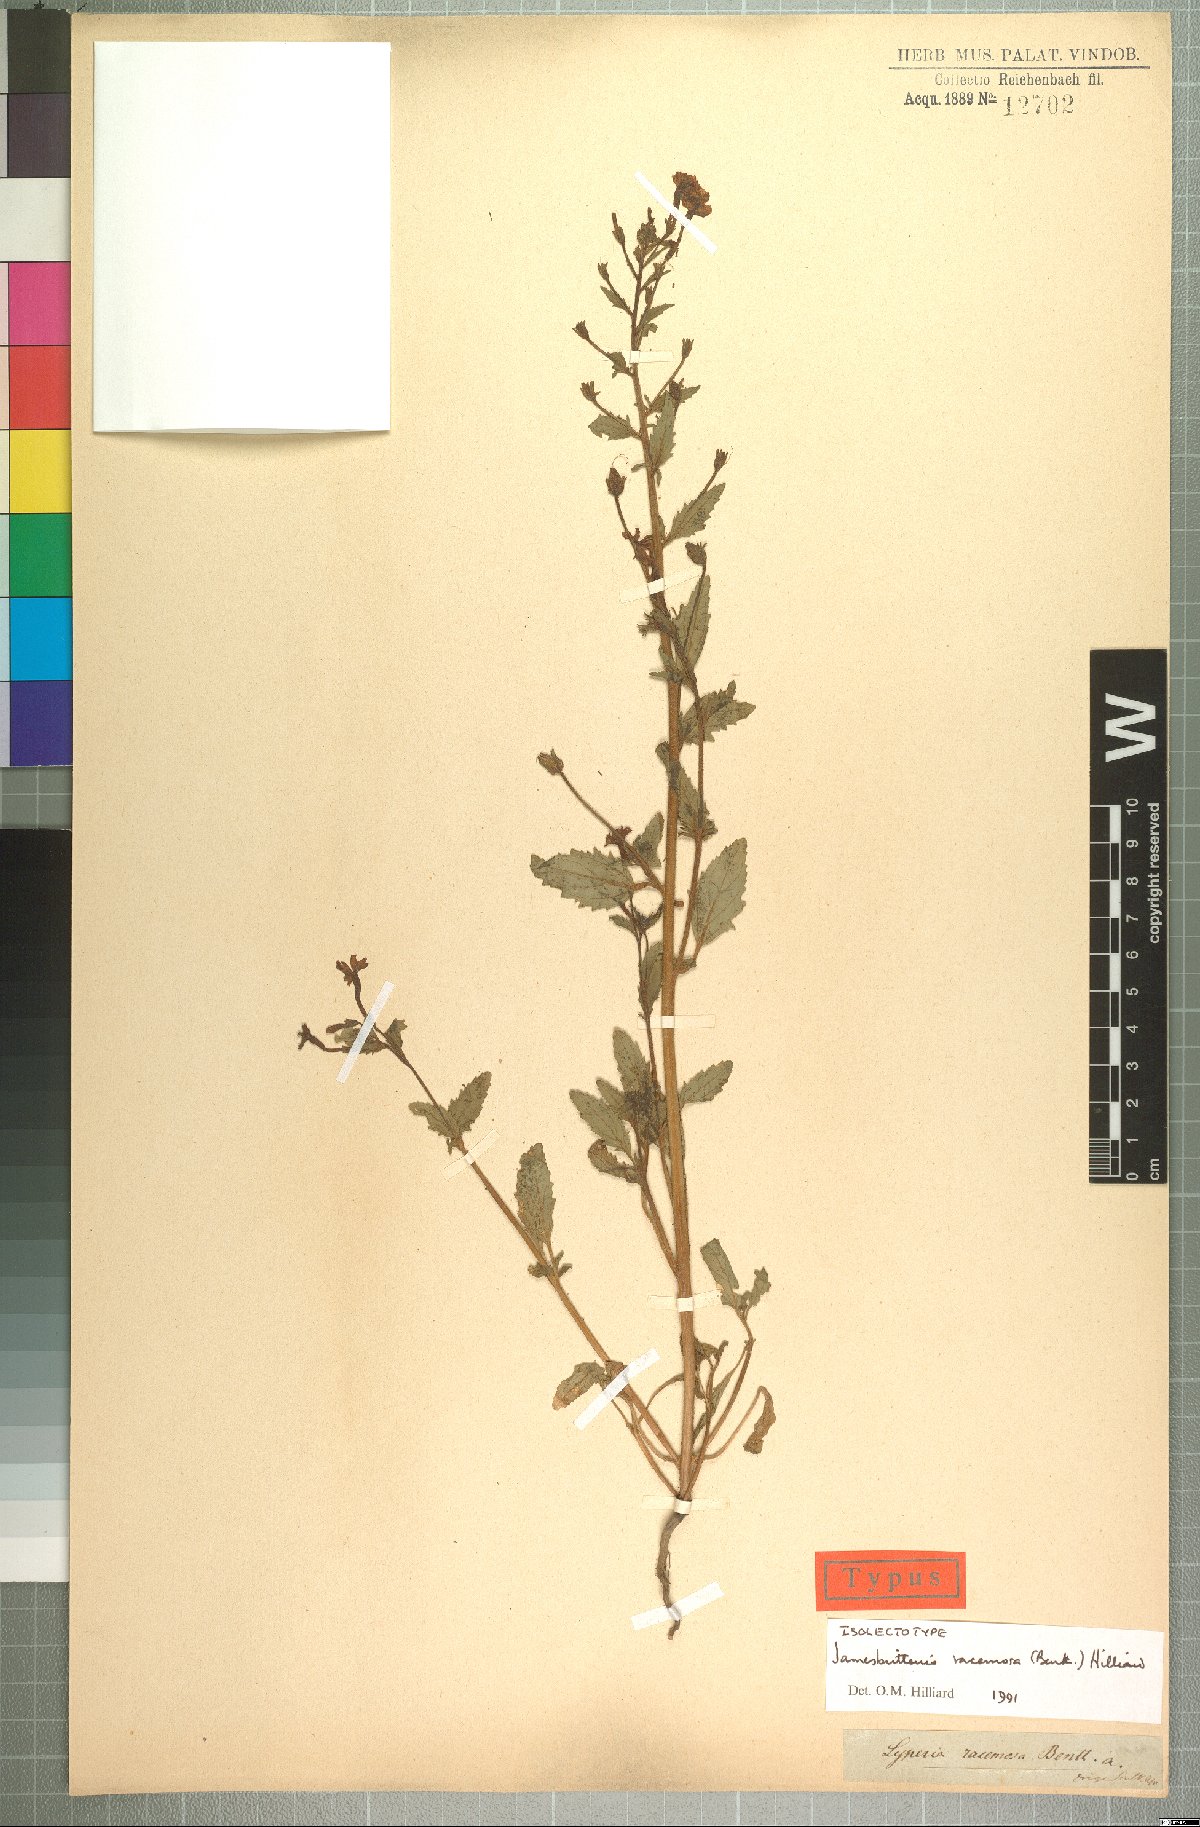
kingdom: Plantae
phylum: Tracheophyta
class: Magnoliopsida
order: Lamiales
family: Scrophulariaceae
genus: Jamesbrittenia
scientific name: Jamesbrittenia racemosa
